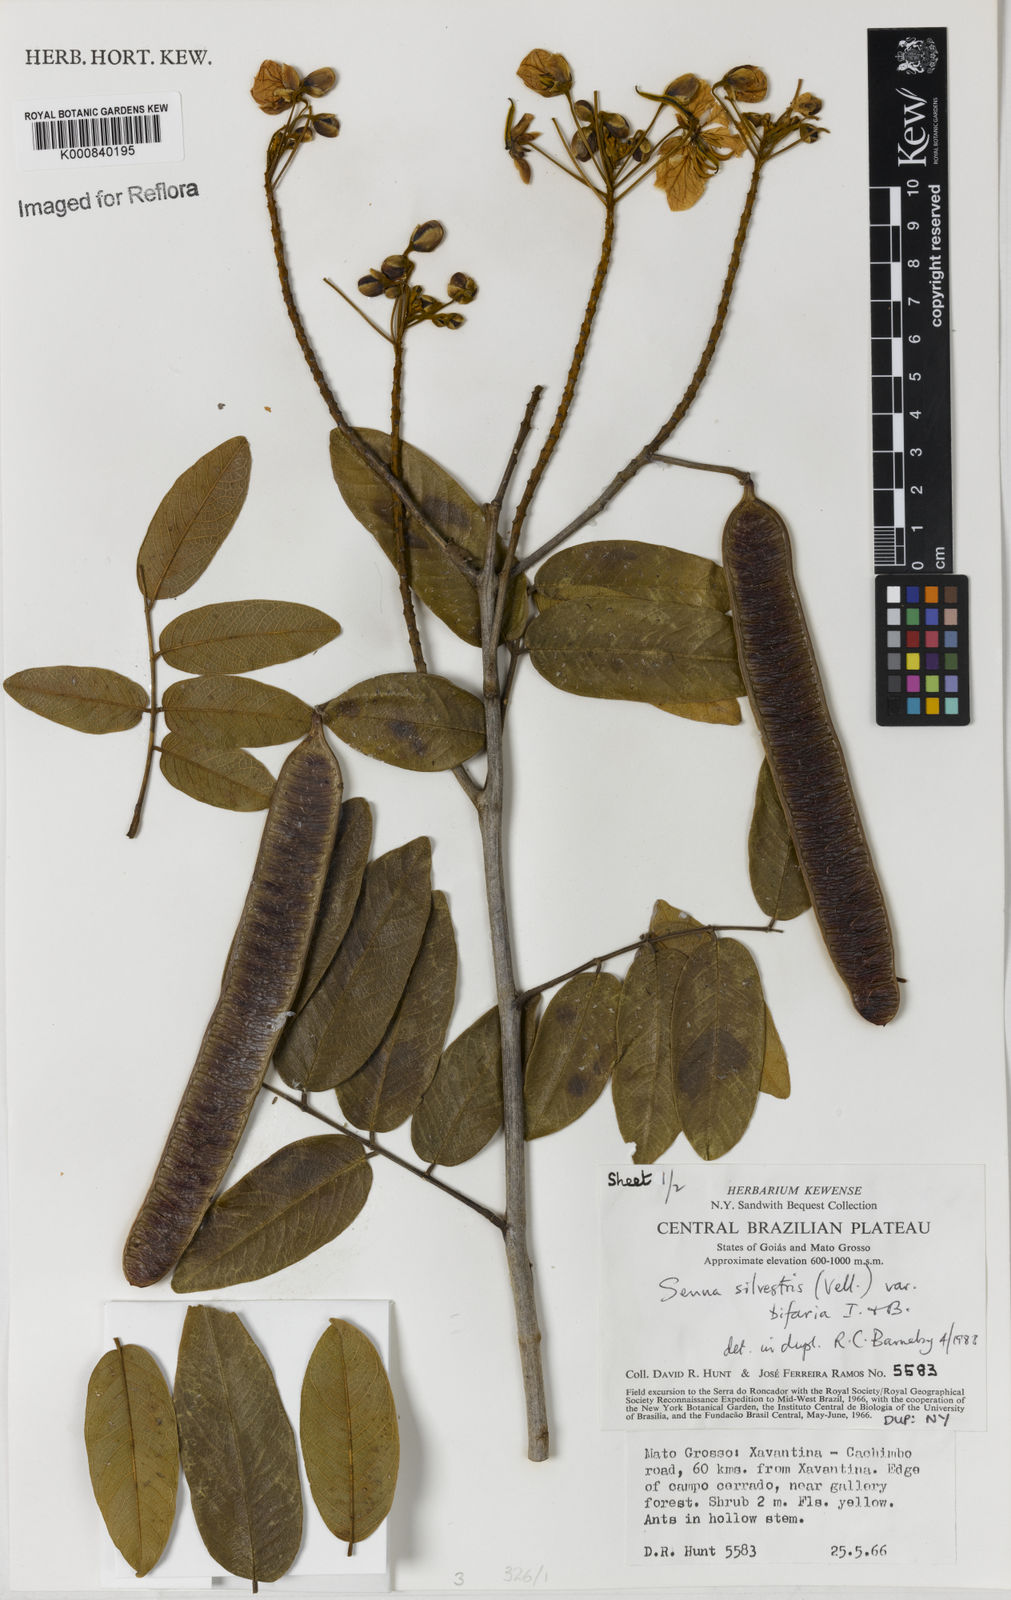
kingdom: Plantae
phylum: Tracheophyta
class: Magnoliopsida
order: Fabales
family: Fabaceae
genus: Senna
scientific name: Senna silvestris
